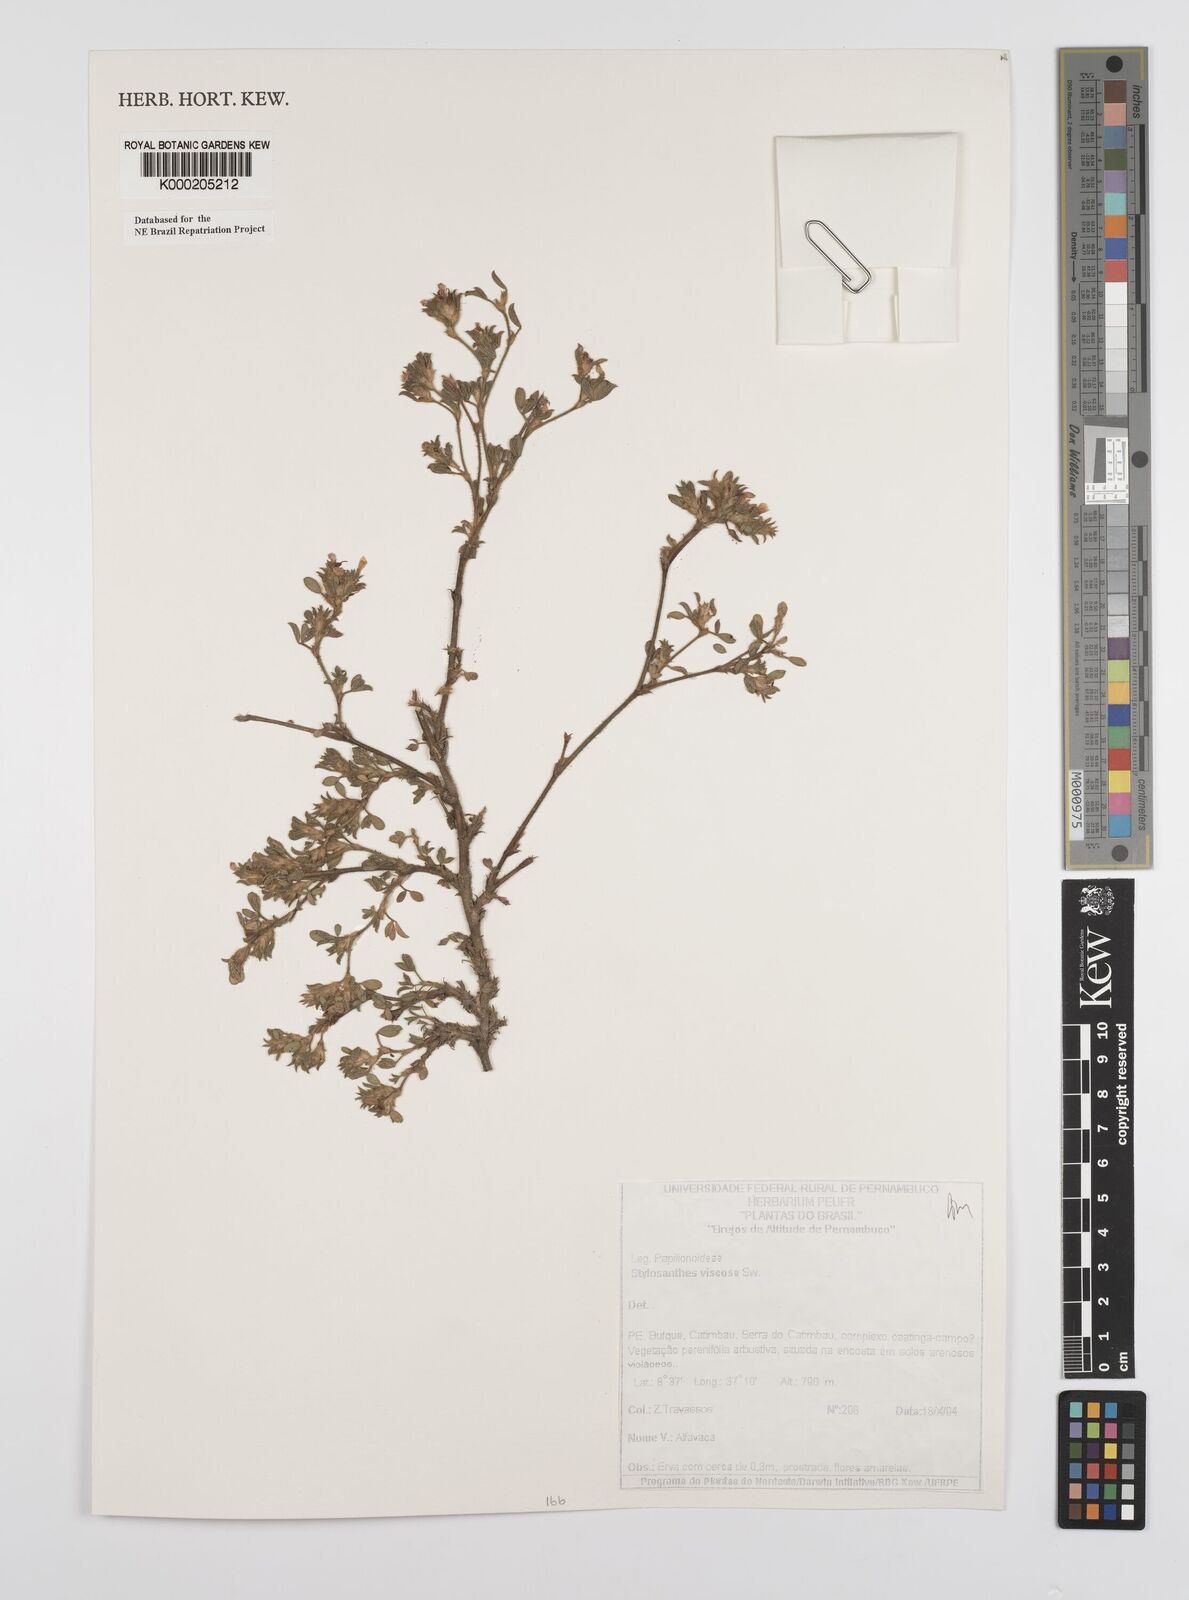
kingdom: Plantae
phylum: Tracheophyta
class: Magnoliopsida
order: Fabales
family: Fabaceae
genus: Stylosanthes
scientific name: Stylosanthes viscosa
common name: Viscid pencil-flower
